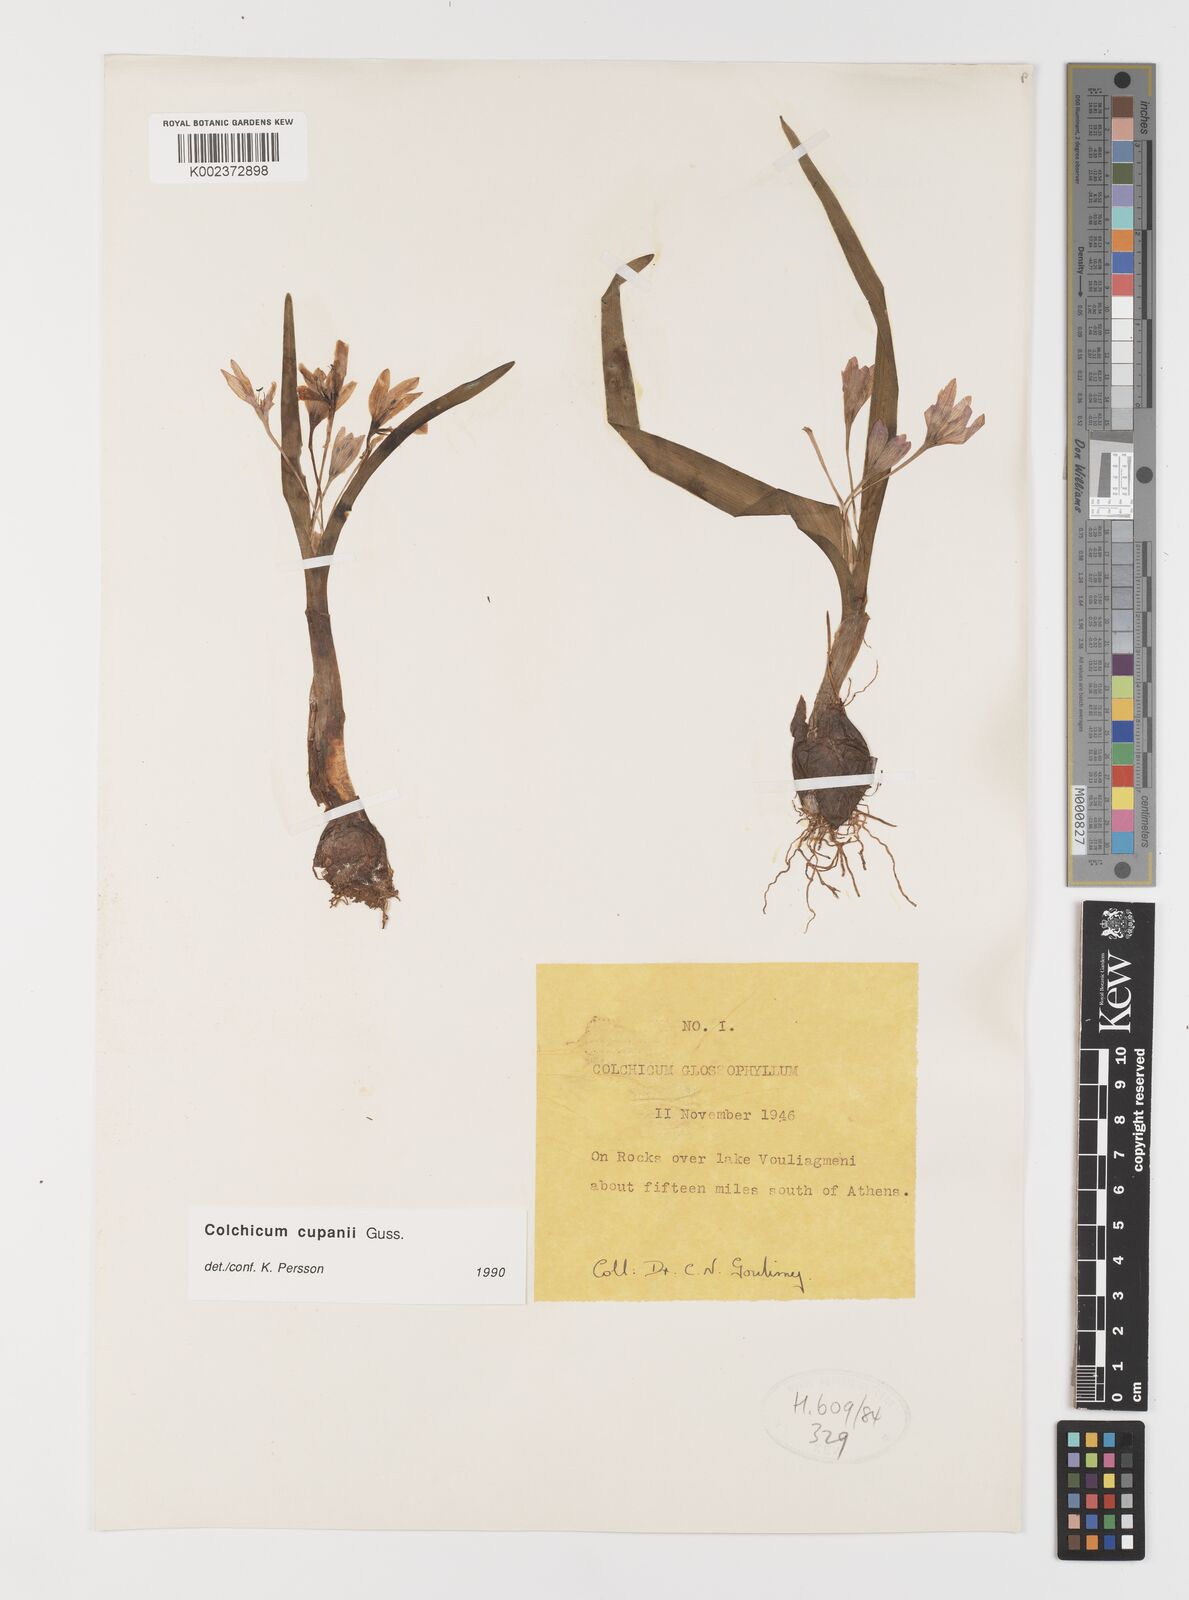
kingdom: Plantae
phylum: Tracheophyta
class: Liliopsida
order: Liliales
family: Colchicaceae
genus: Colchicum
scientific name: Colchicum cupanii
